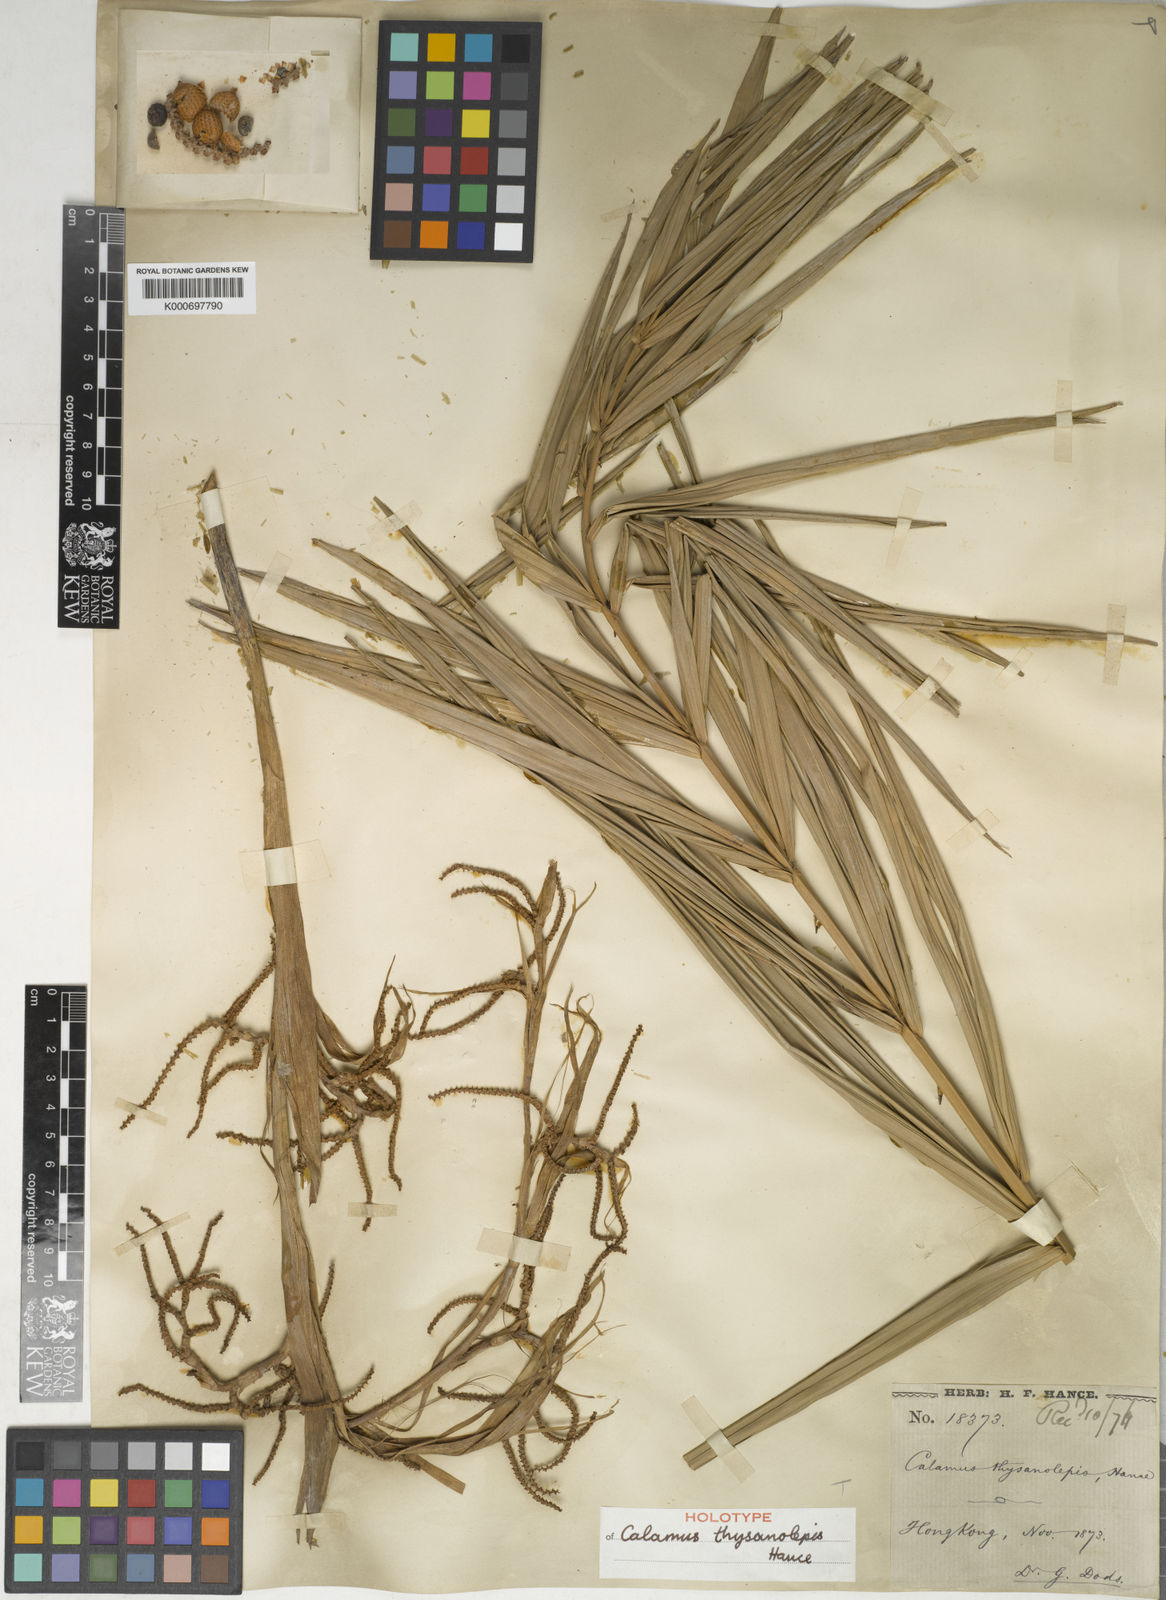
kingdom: Plantae
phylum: Tracheophyta
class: Liliopsida
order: Arecales
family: Arecaceae
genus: Calamus
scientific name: Calamus thysanolepis
